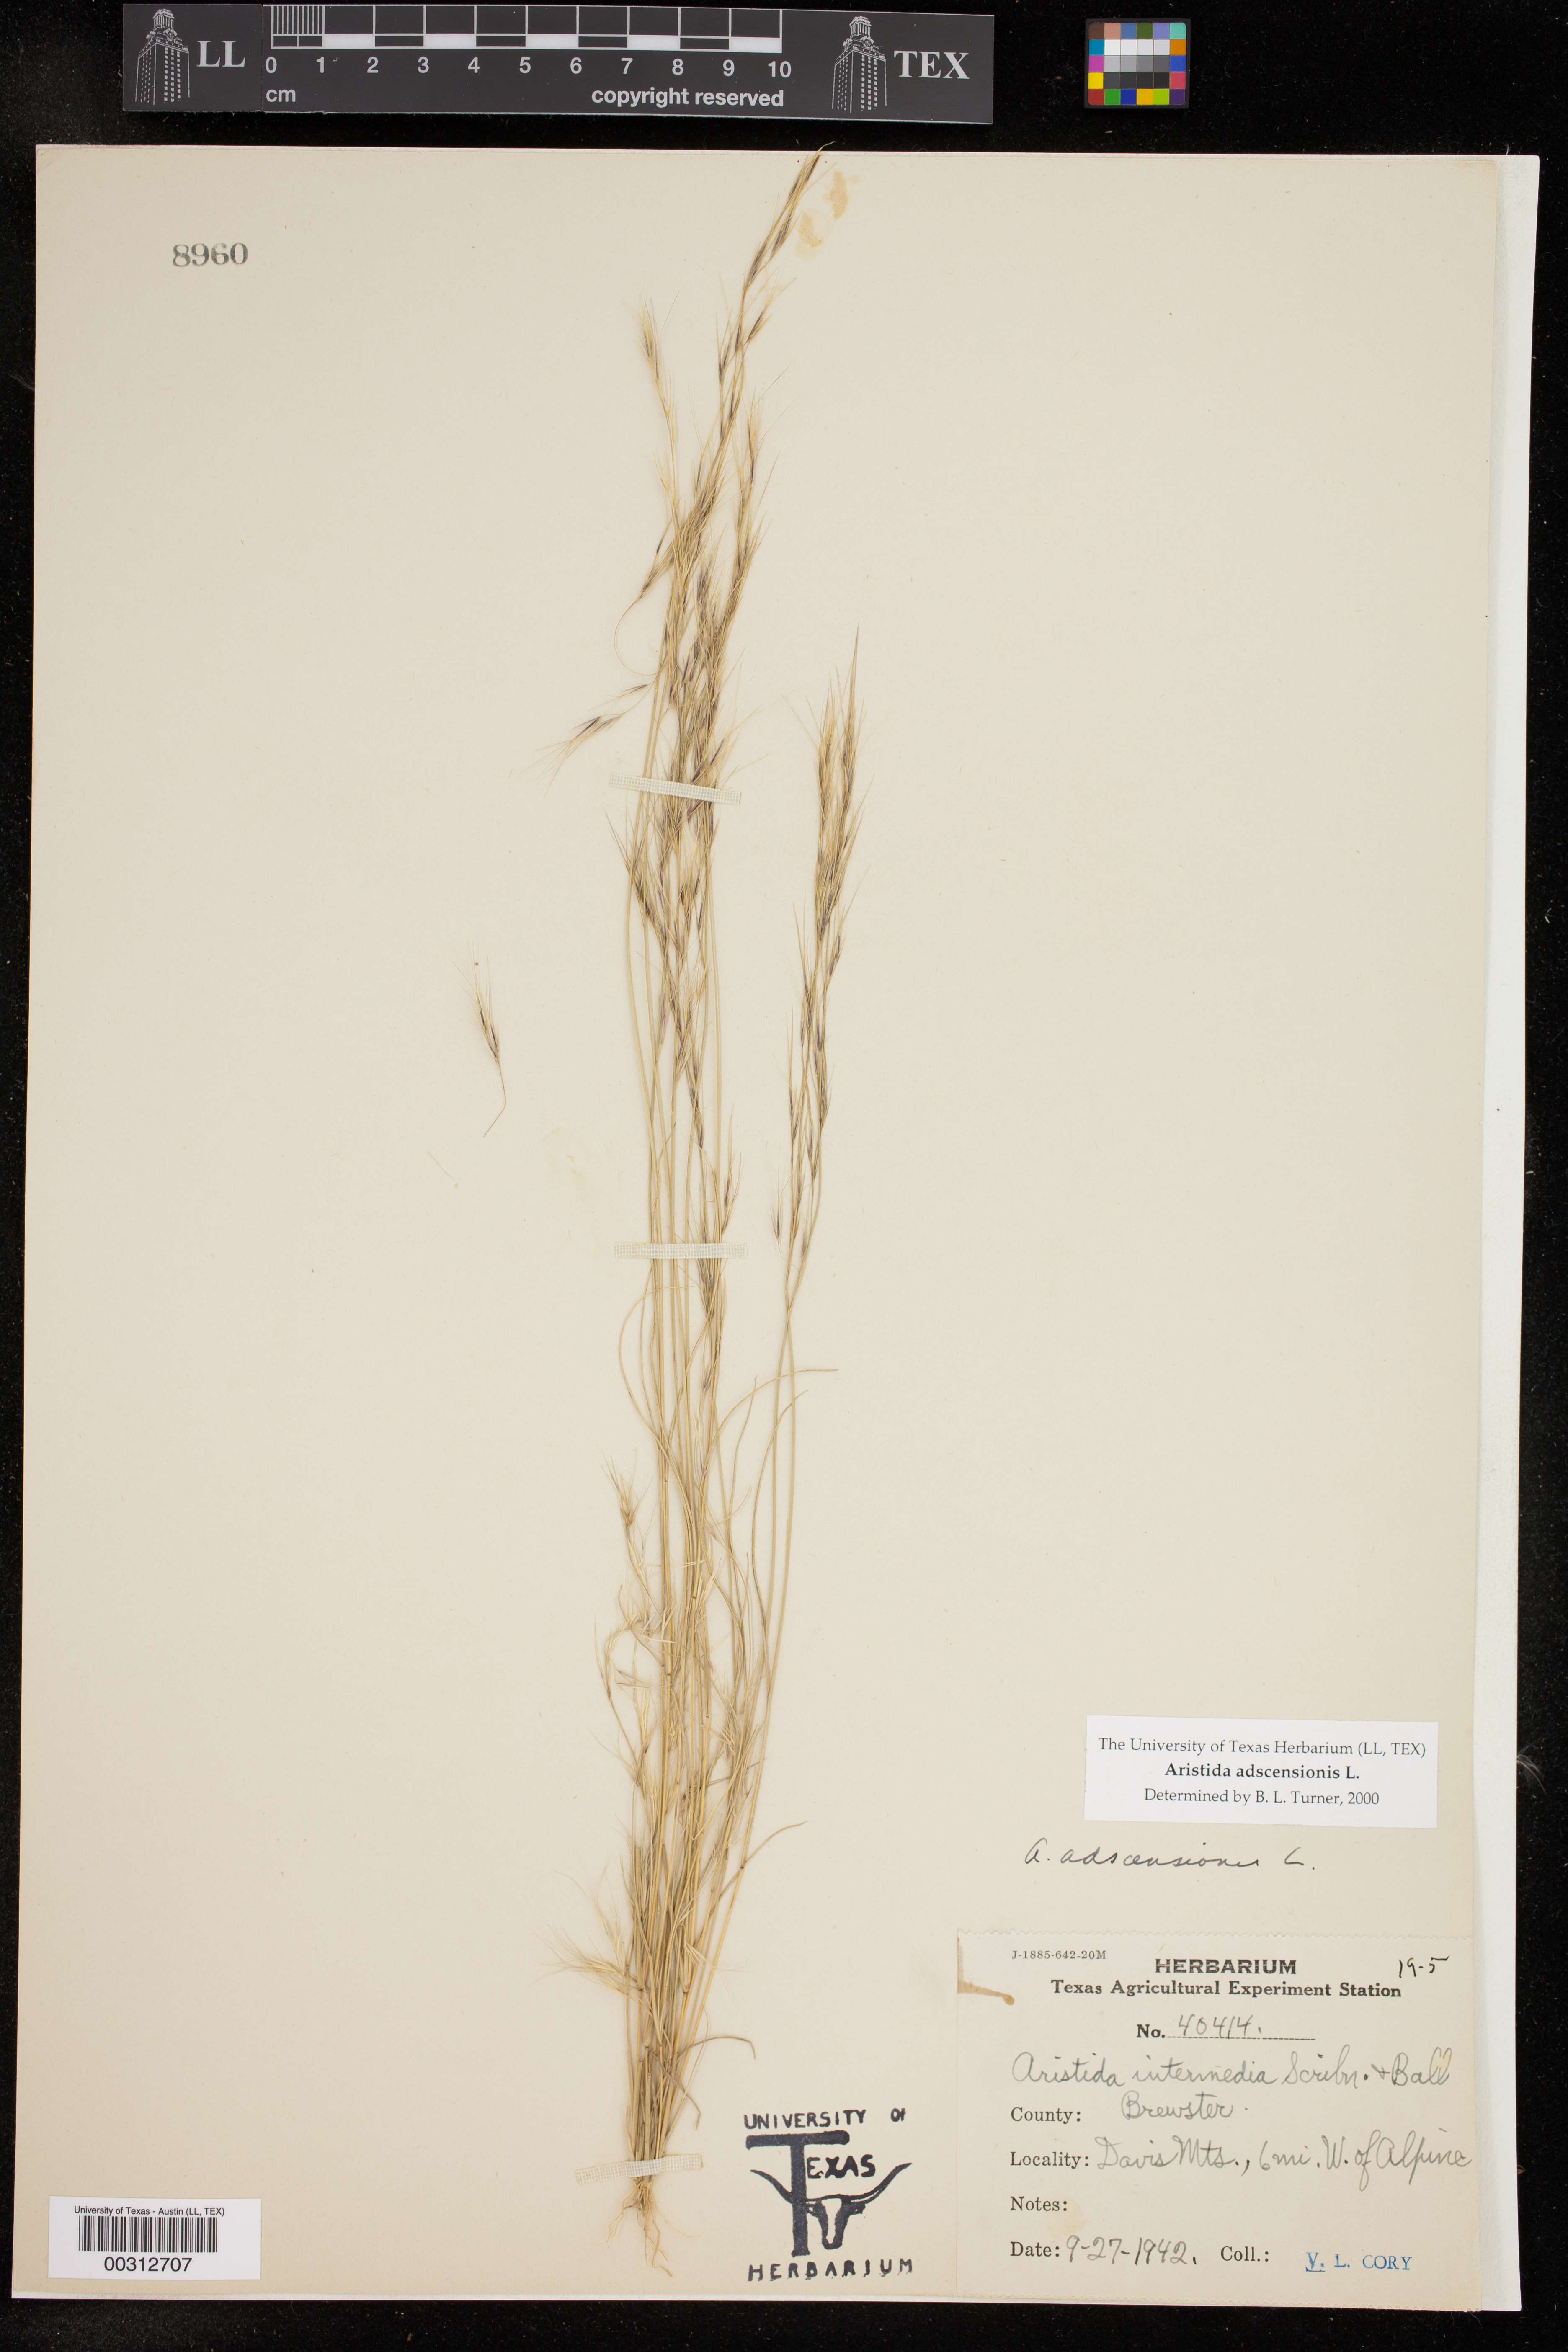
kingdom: Plantae
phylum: Tracheophyta
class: Liliopsida
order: Poales
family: Poaceae
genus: Aristida
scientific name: Aristida adscensionis
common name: Sixweeks threeawn
